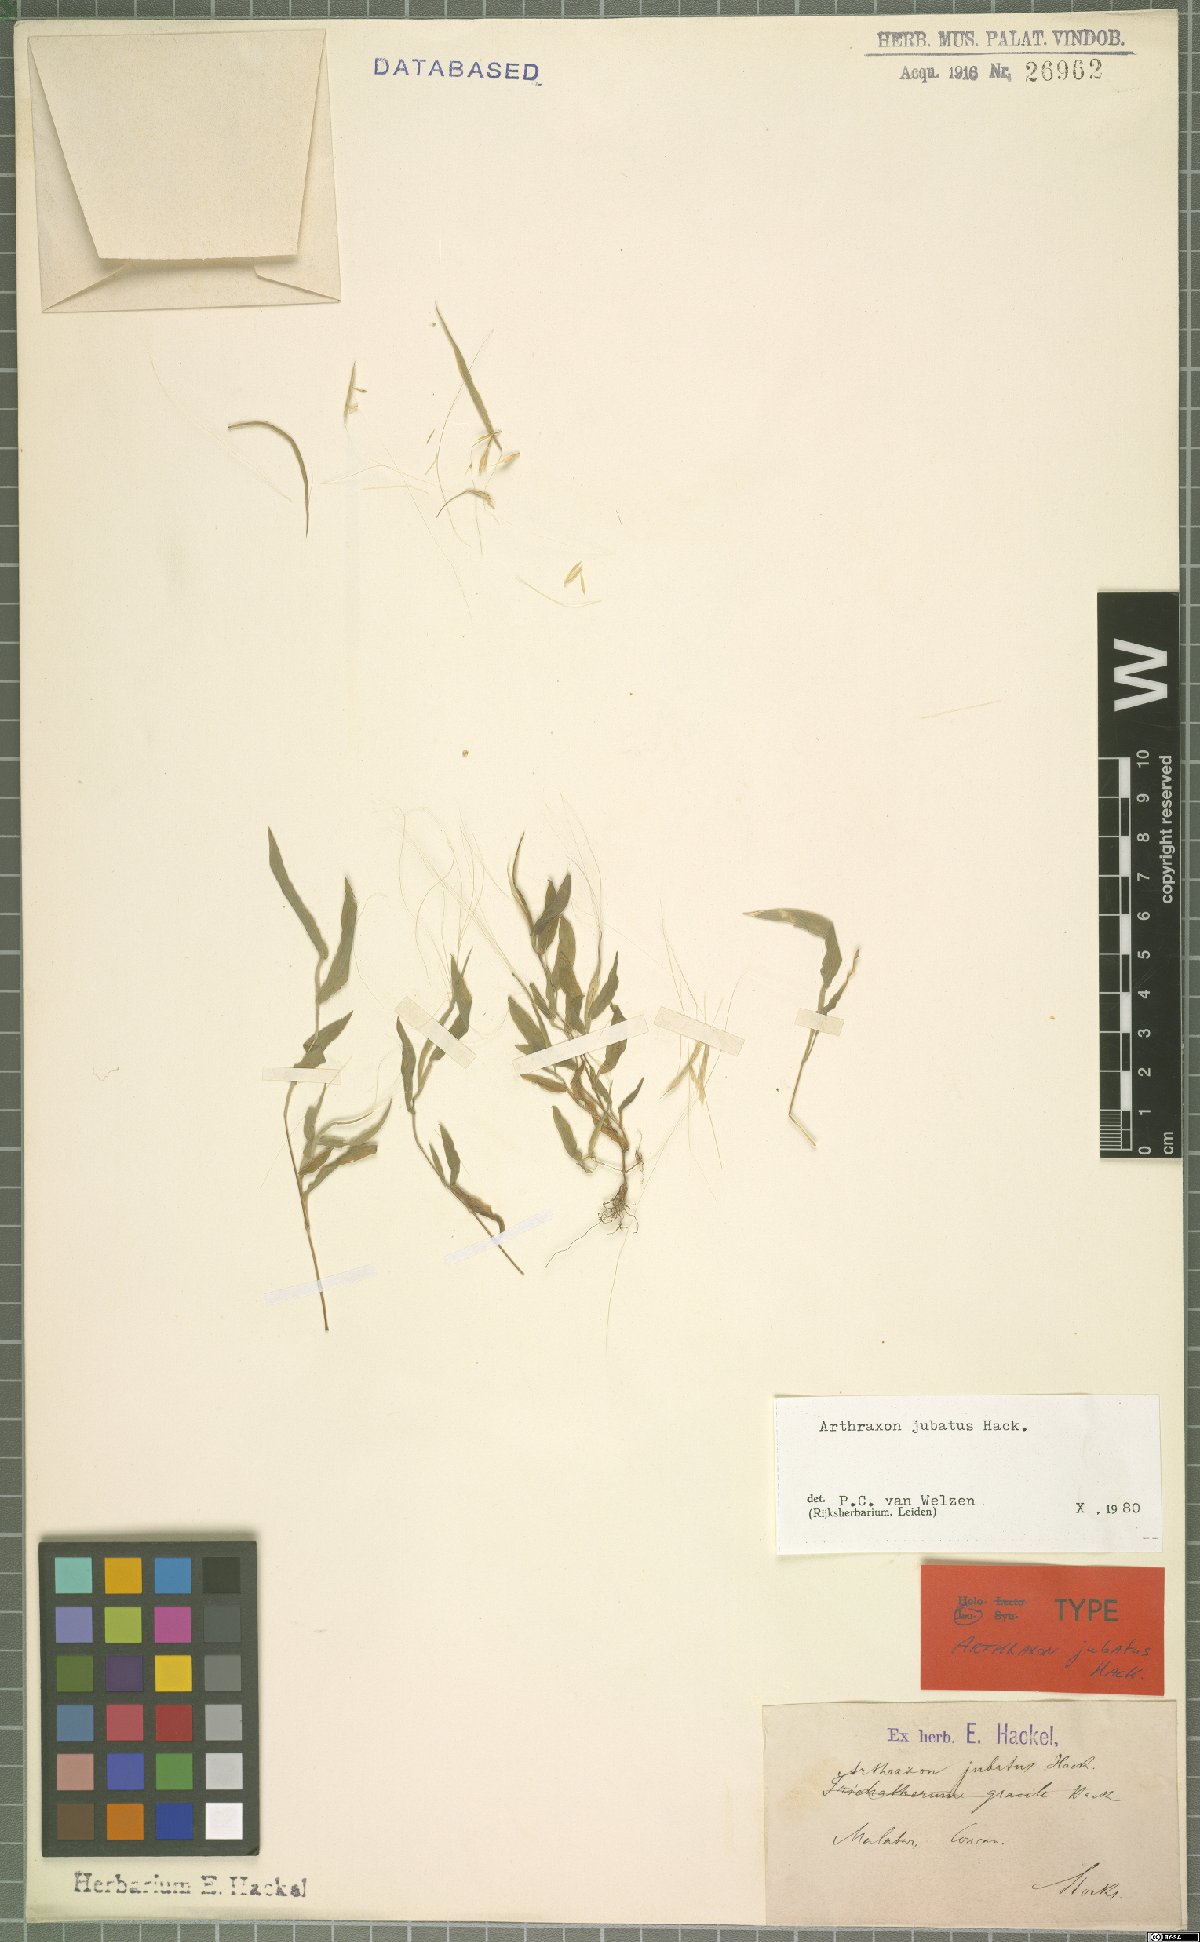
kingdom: Plantae
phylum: Tracheophyta
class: Liliopsida
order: Poales
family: Poaceae
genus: Arthraxon
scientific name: Arthraxon jubatus
